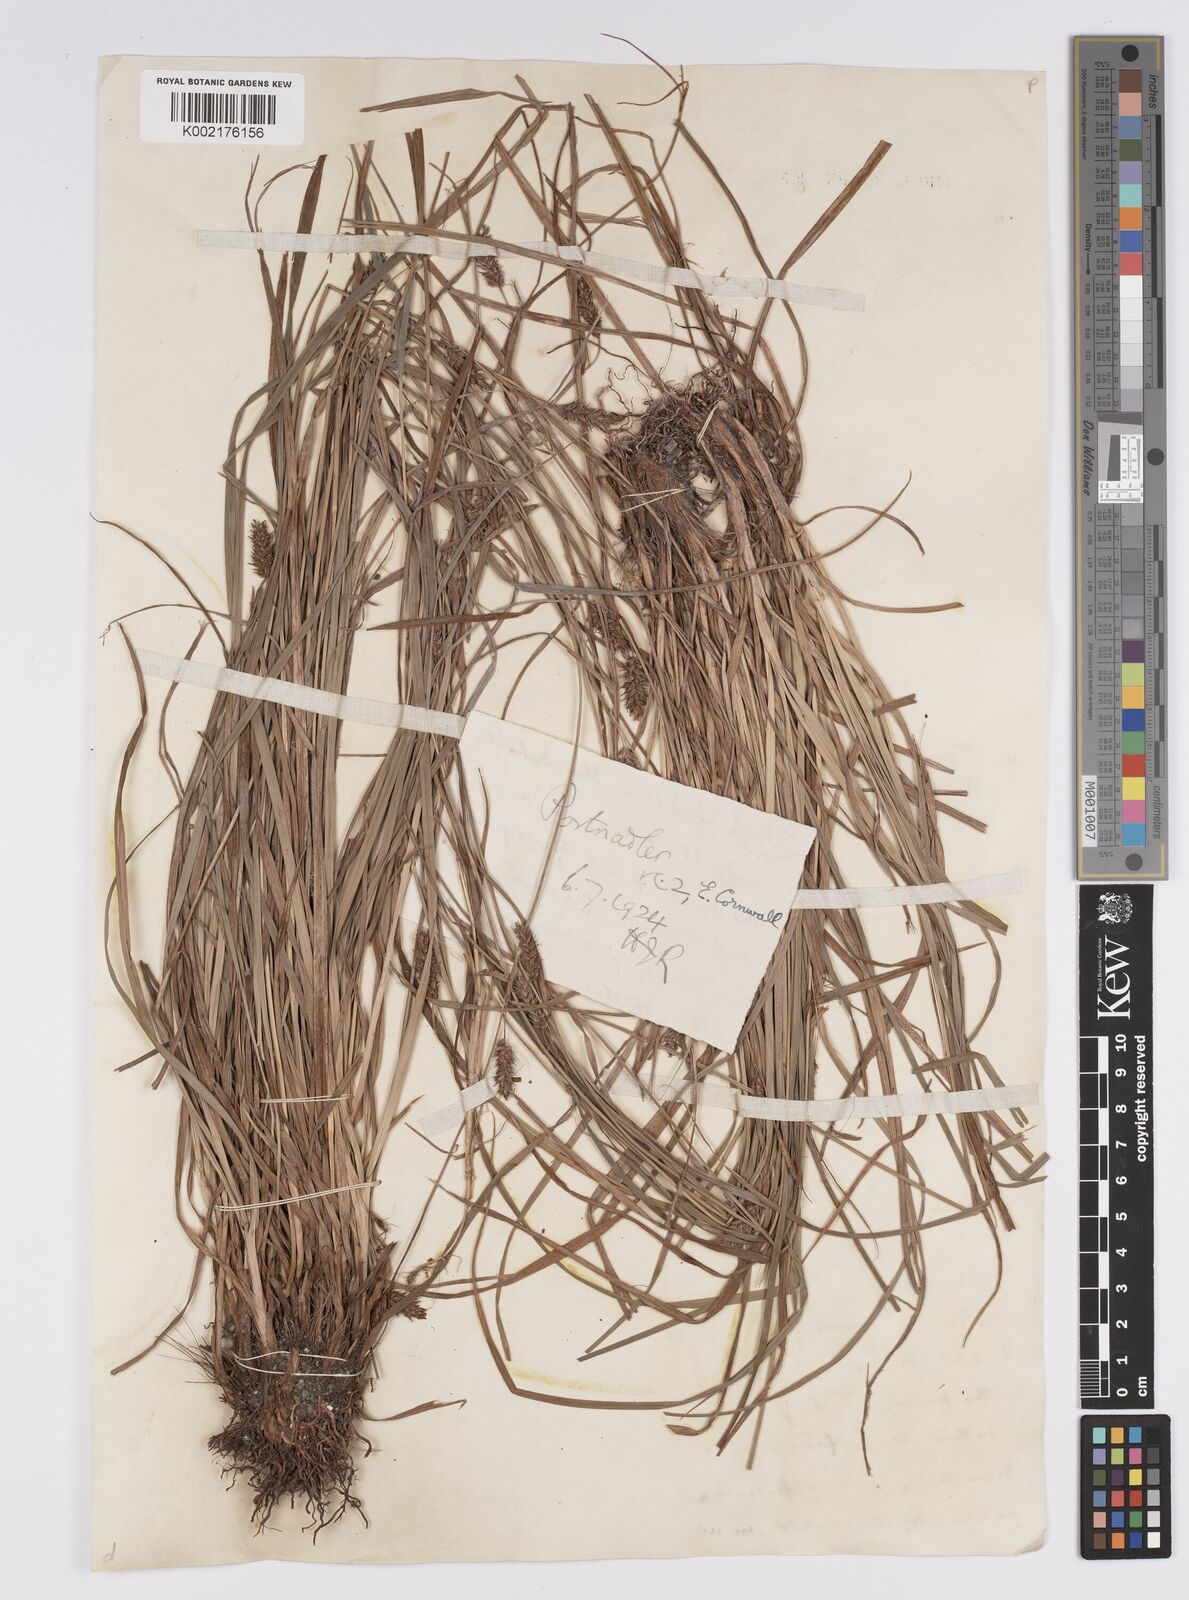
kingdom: Plantae
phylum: Tracheophyta
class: Liliopsida
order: Poales
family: Cyperaceae
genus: Carex
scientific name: Carex distans
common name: Distant sedge
